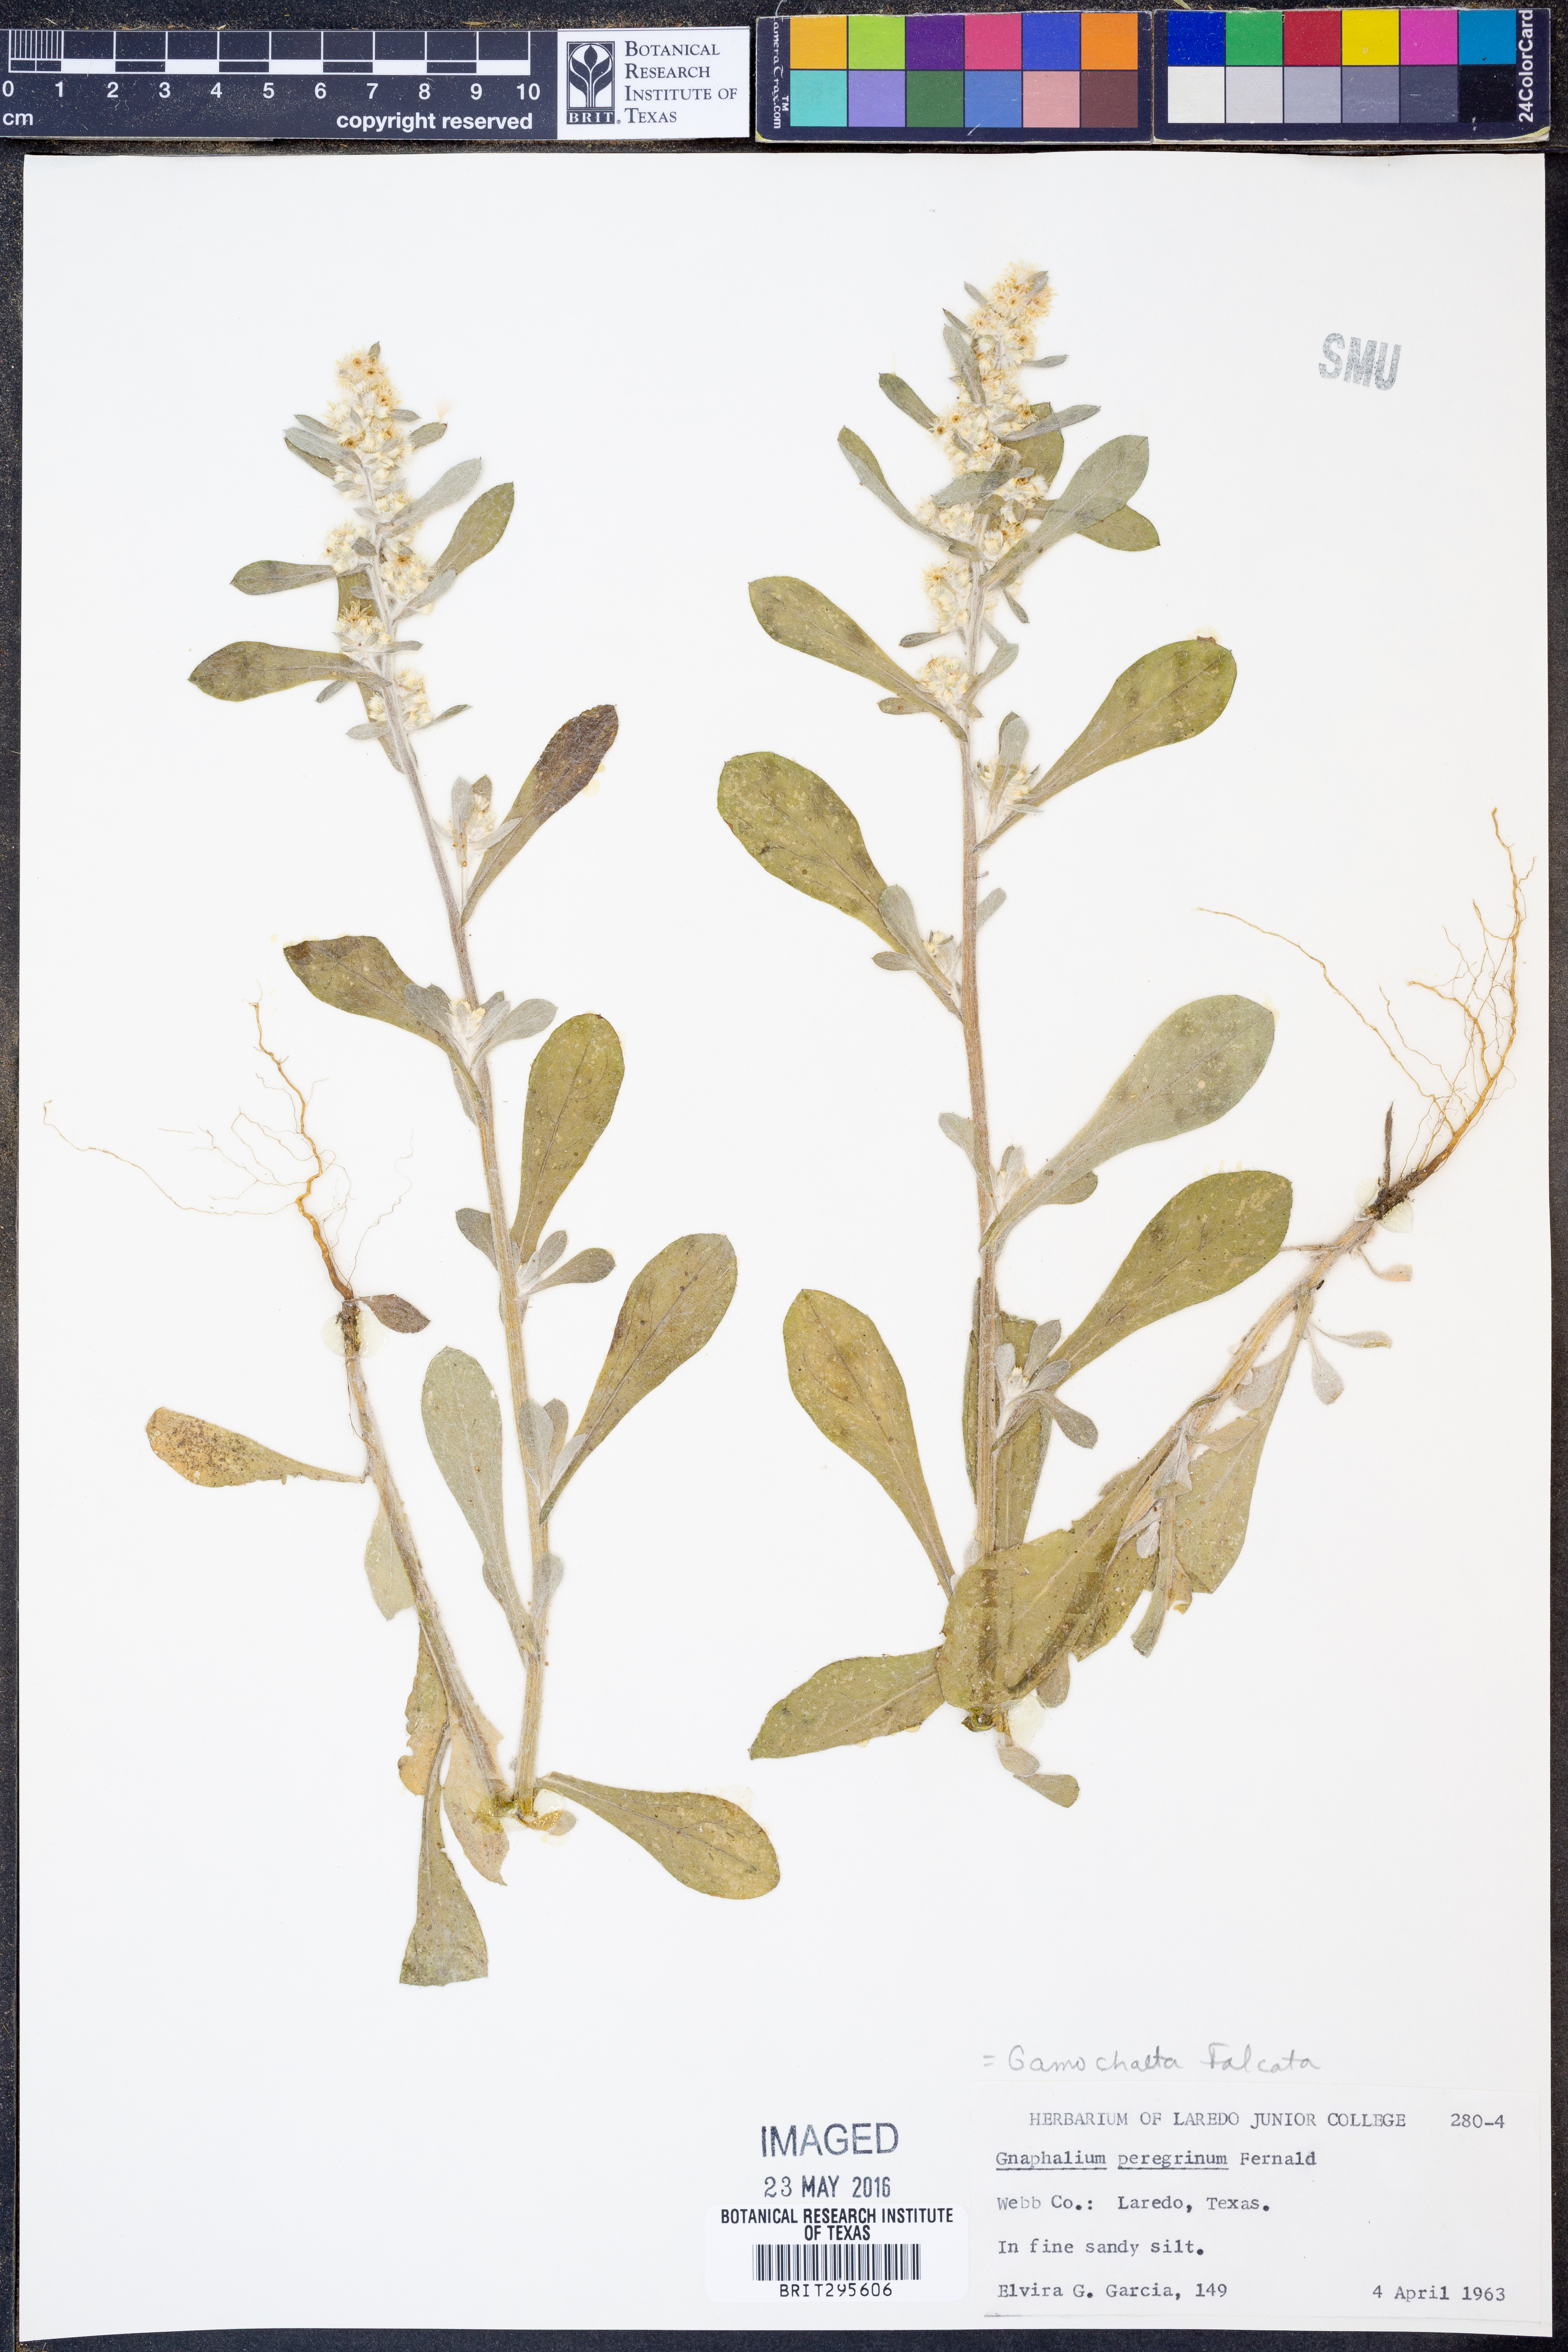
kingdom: Plantae
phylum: Tracheophyta
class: Magnoliopsida
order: Asterales
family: Asteraceae
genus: Gamochaeta
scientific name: Gamochaeta falcata
